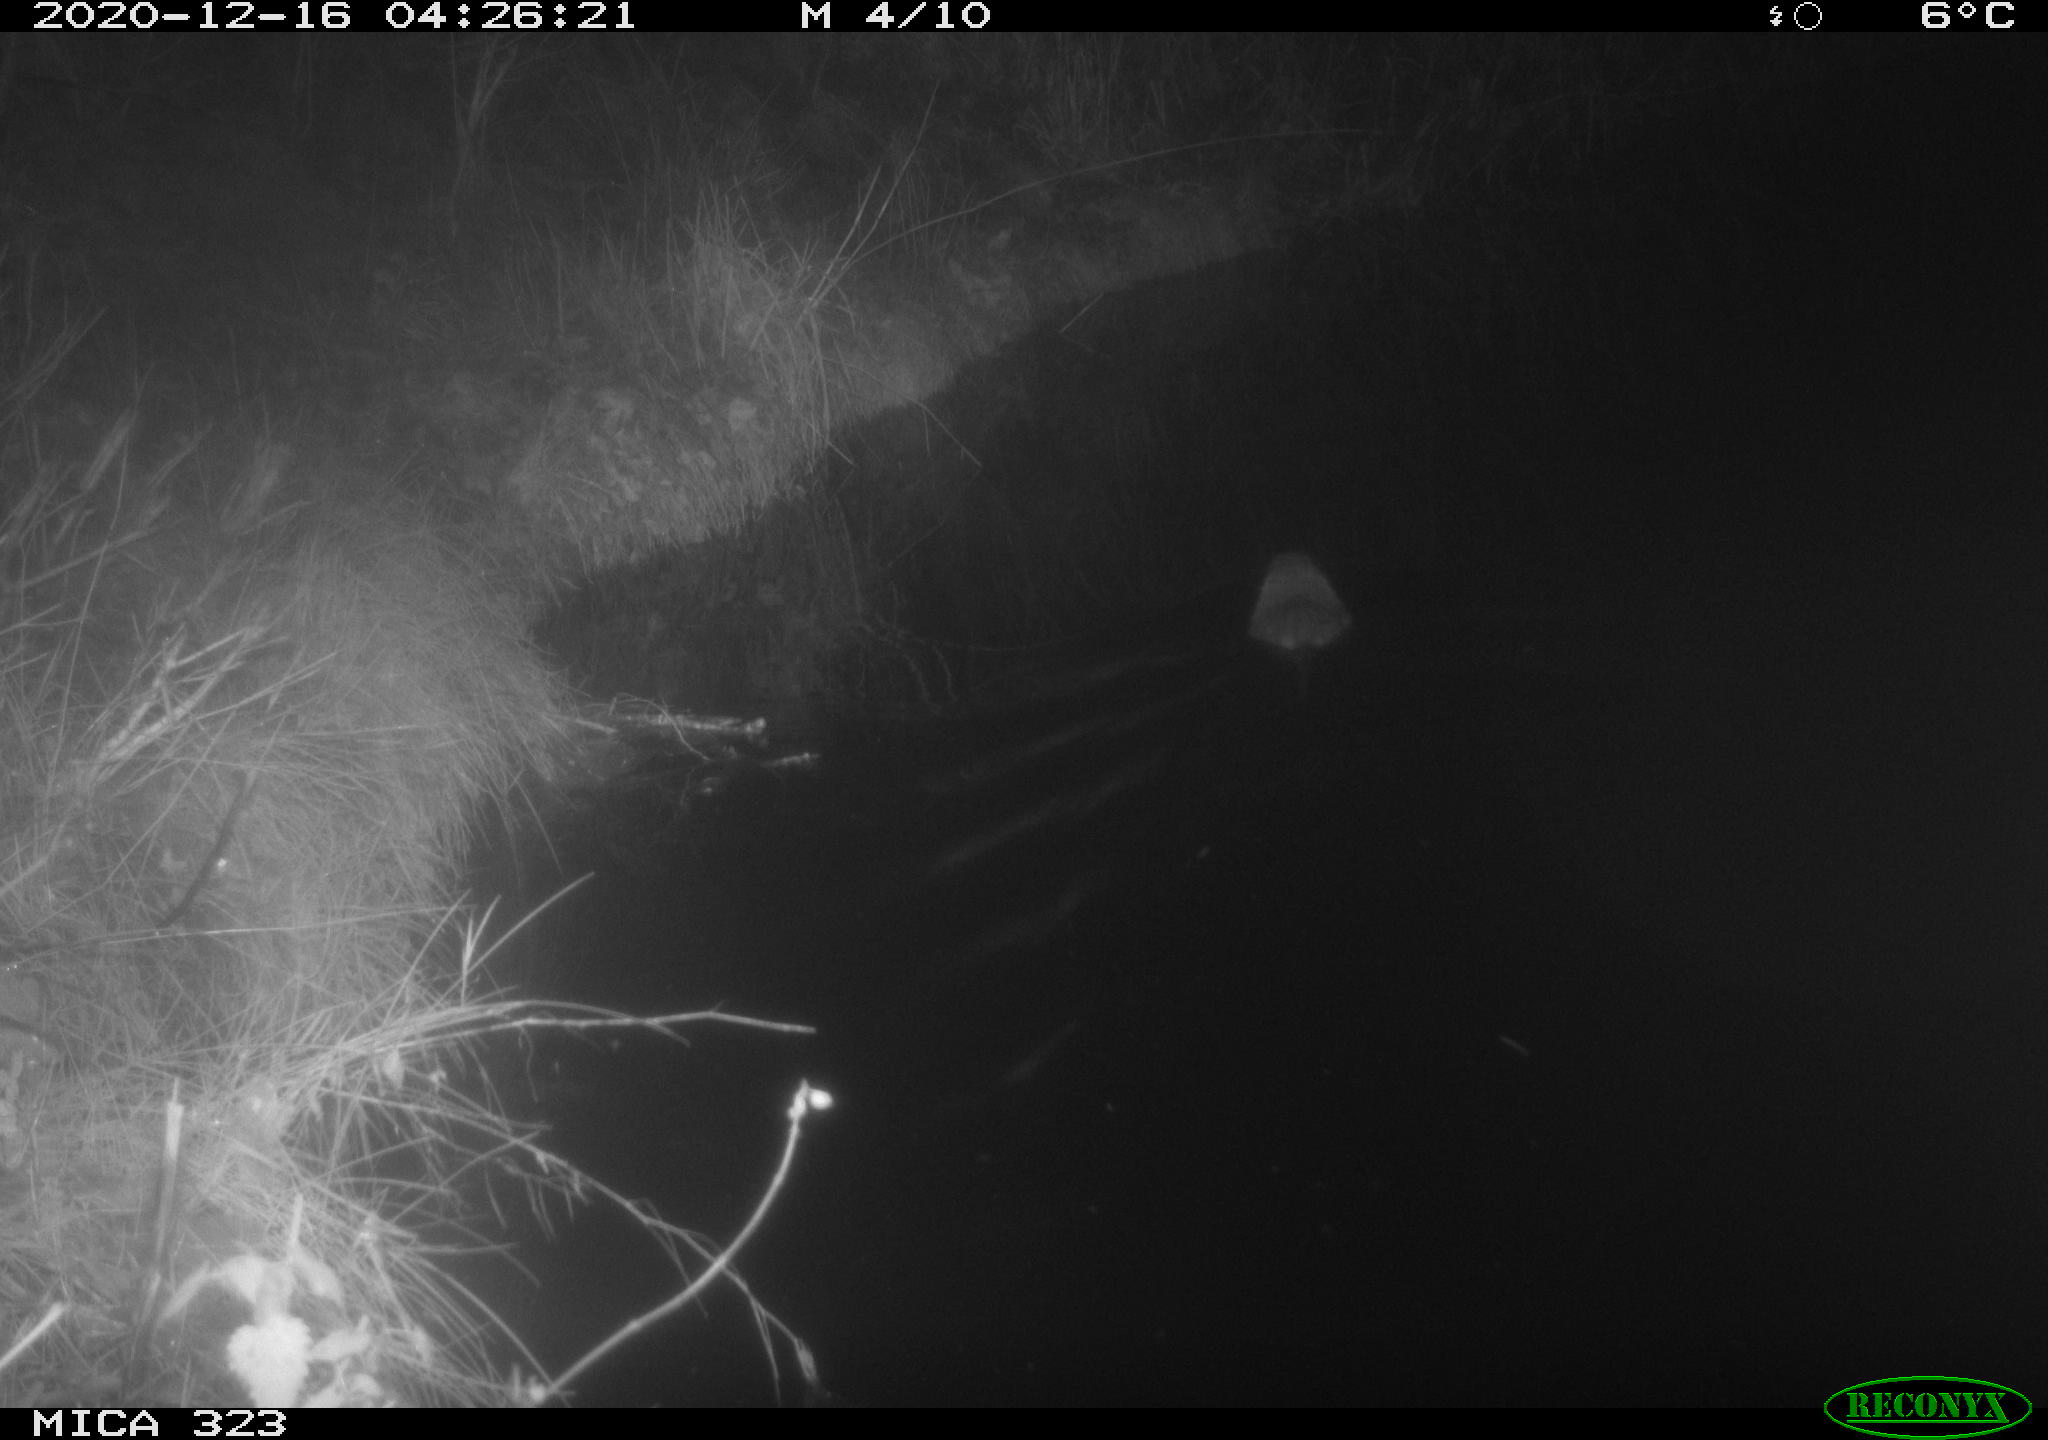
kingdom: Animalia
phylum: Chordata
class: Mammalia
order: Rodentia
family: Myocastoridae
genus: Myocastor
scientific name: Myocastor coypus
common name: Coypu
